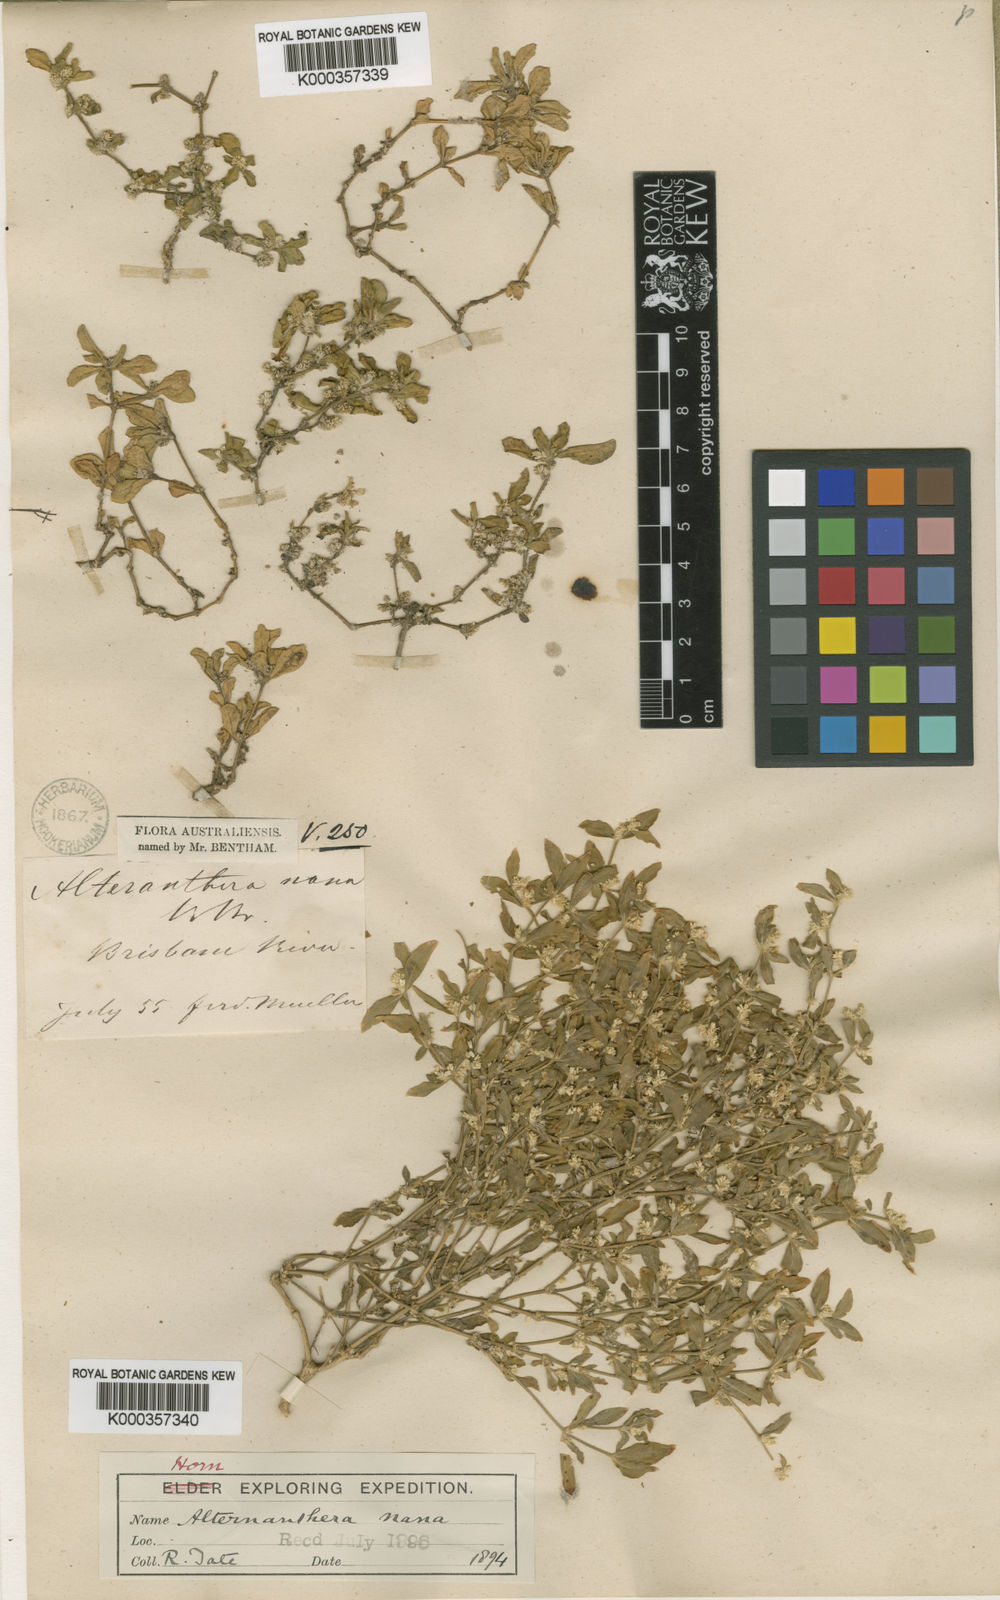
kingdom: Plantae
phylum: Tracheophyta
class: Magnoliopsida
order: Caryophyllales
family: Amaranthaceae
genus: Alternanthera
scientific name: Alternanthera nana
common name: Hairy joyweed
